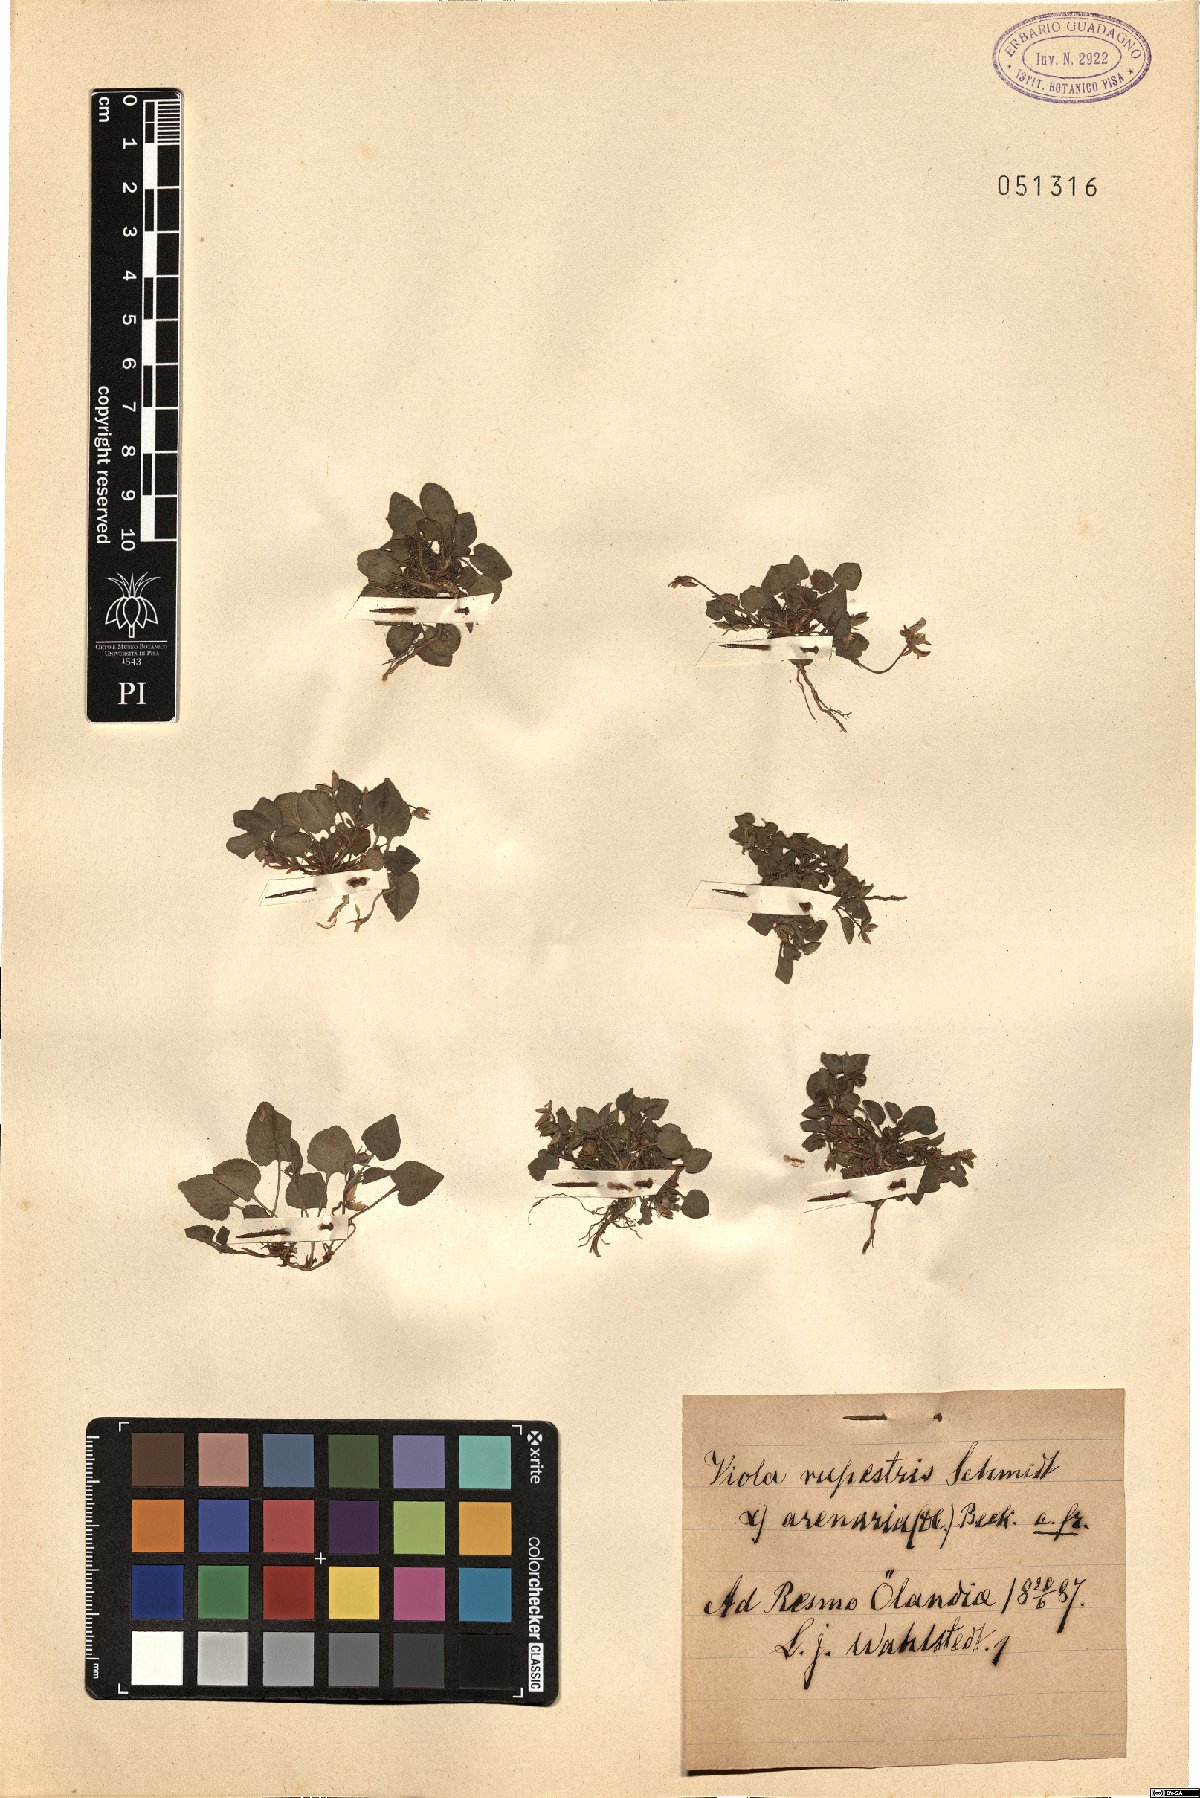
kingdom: Plantae
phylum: Tracheophyta
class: Magnoliopsida
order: Malpighiales
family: Violaceae
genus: Viola
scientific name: Viola rupestris
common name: Teesdale violet
